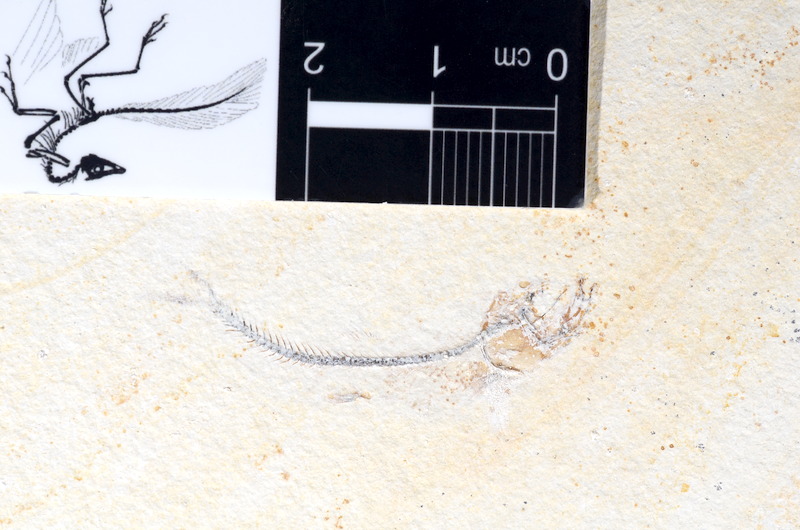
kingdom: Animalia
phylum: Chordata
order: Salmoniformes
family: Orthogonikleithridae
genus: Orthogonikleithrus
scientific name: Orthogonikleithrus hoelli
